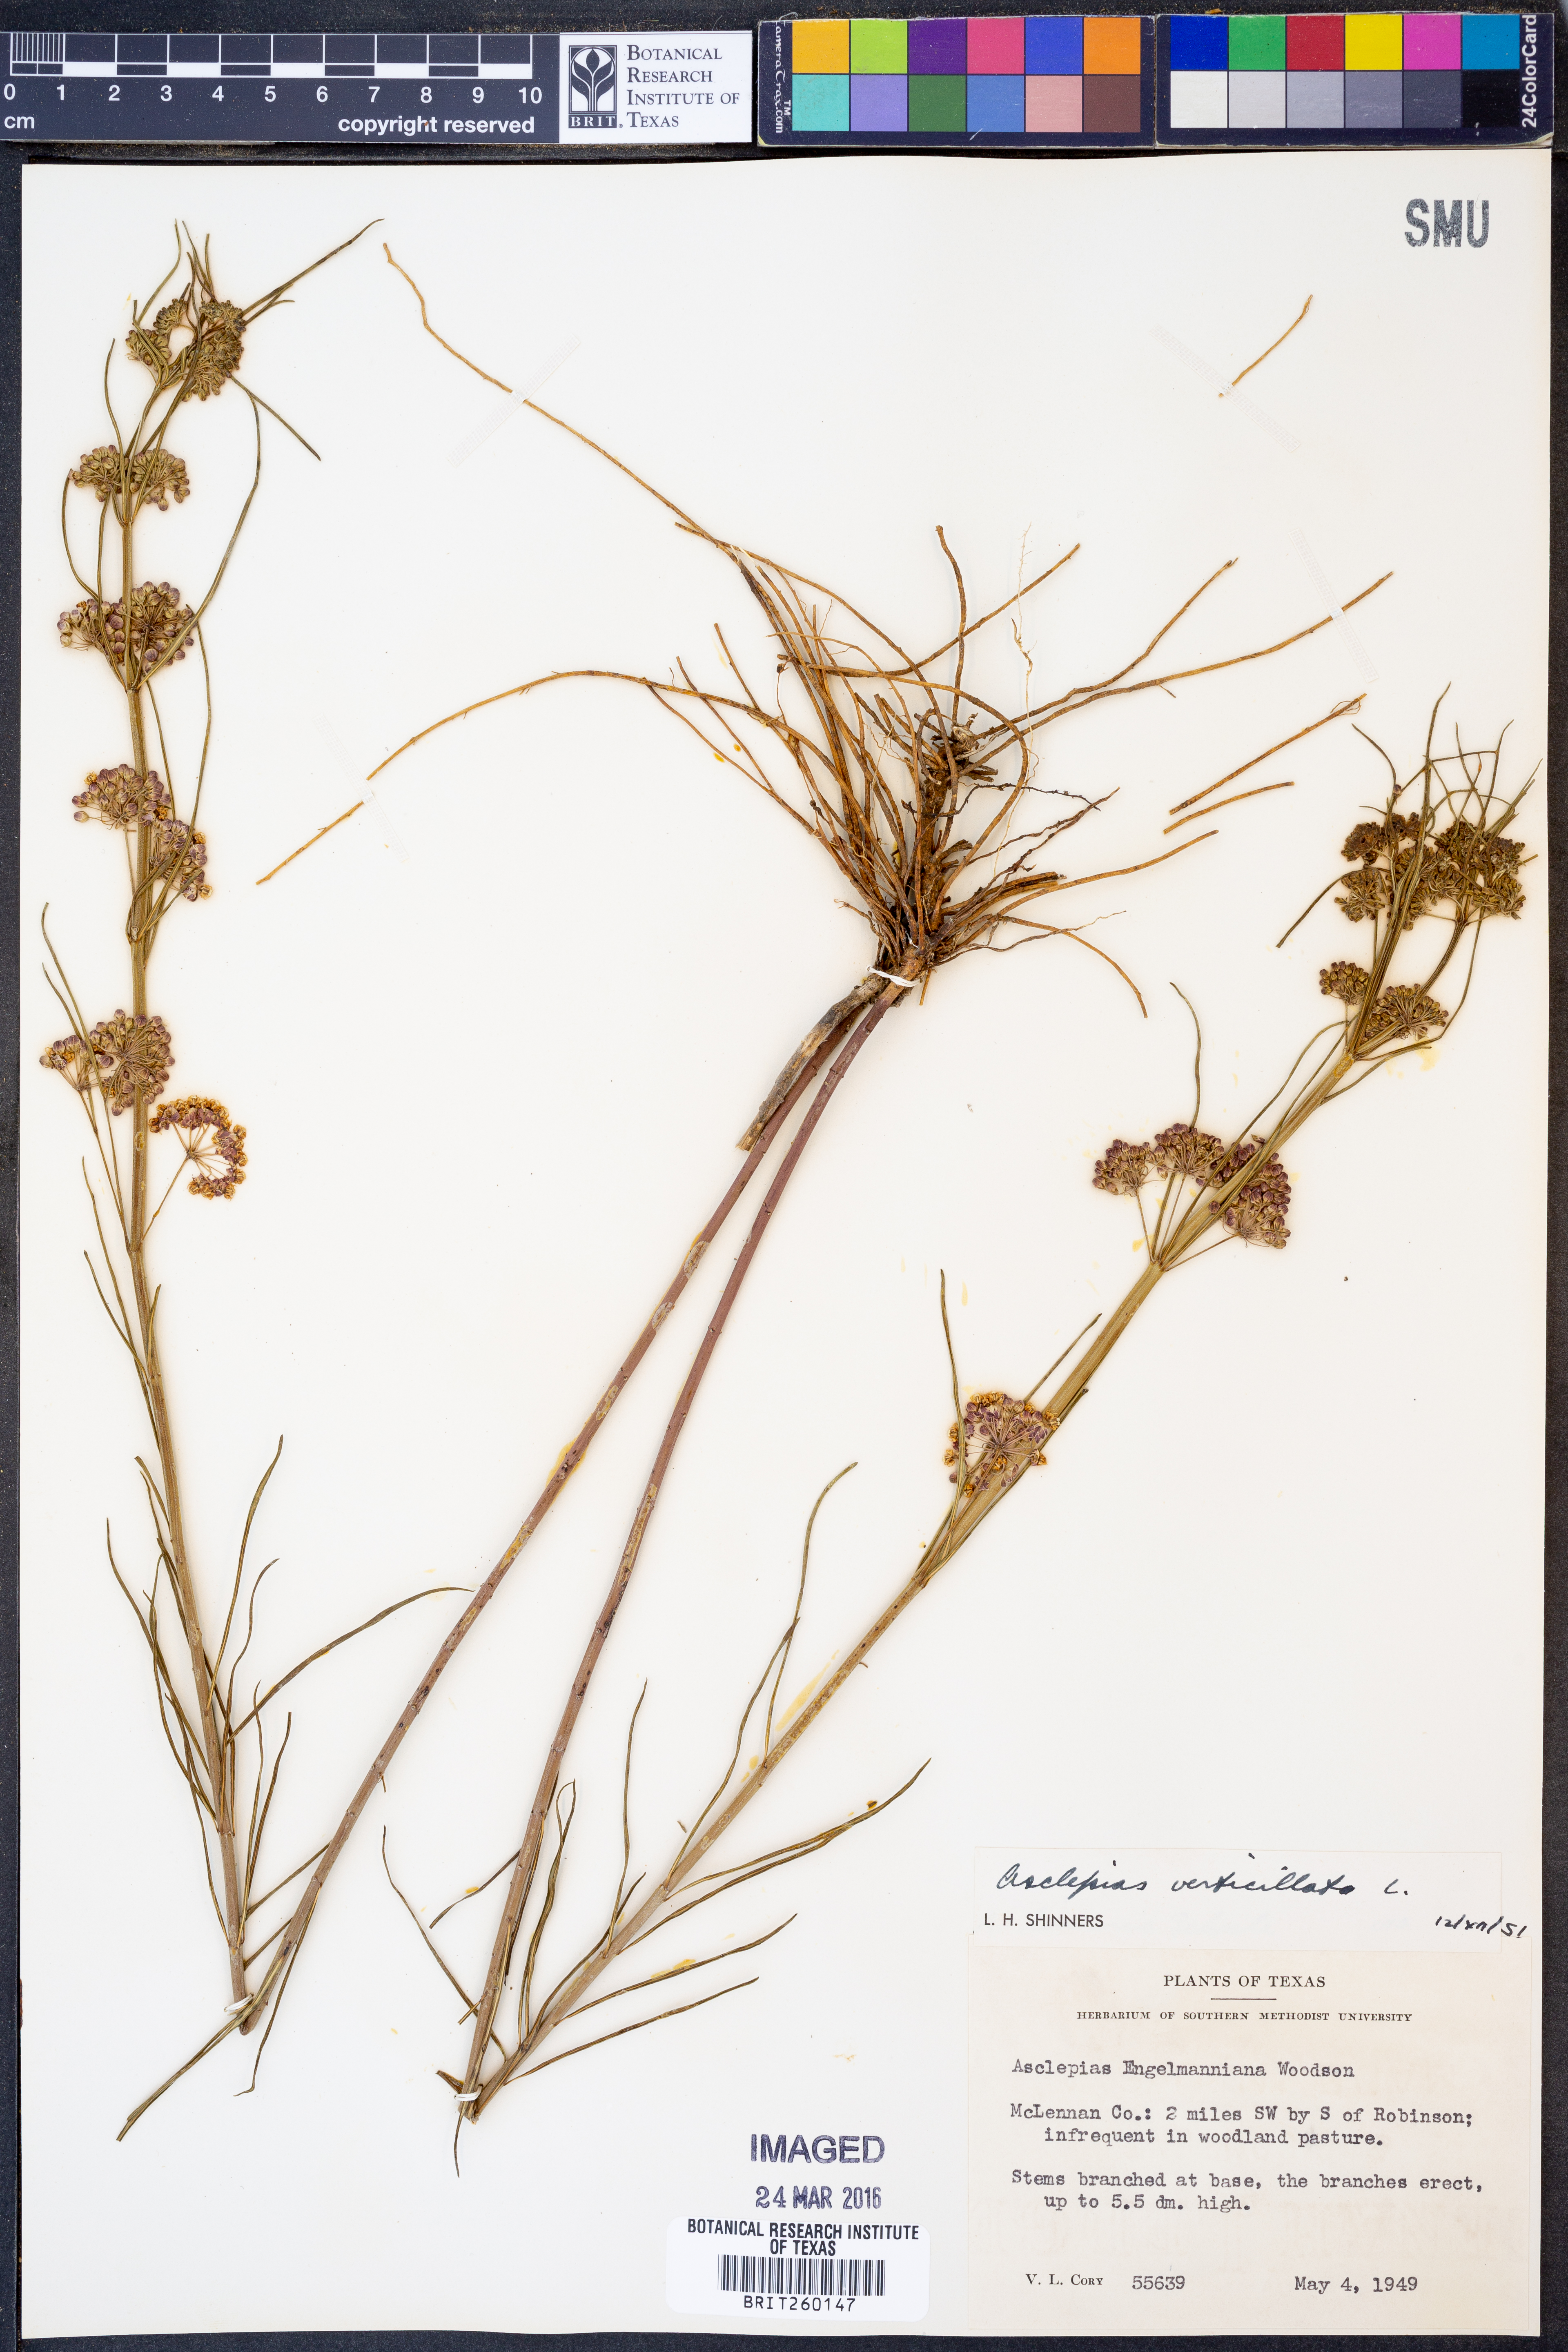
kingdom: Plantae
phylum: Tracheophyta
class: Magnoliopsida
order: Gentianales
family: Apocynaceae
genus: Asclepias
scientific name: Asclepias verticillata
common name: Eastern whorled milkweed
